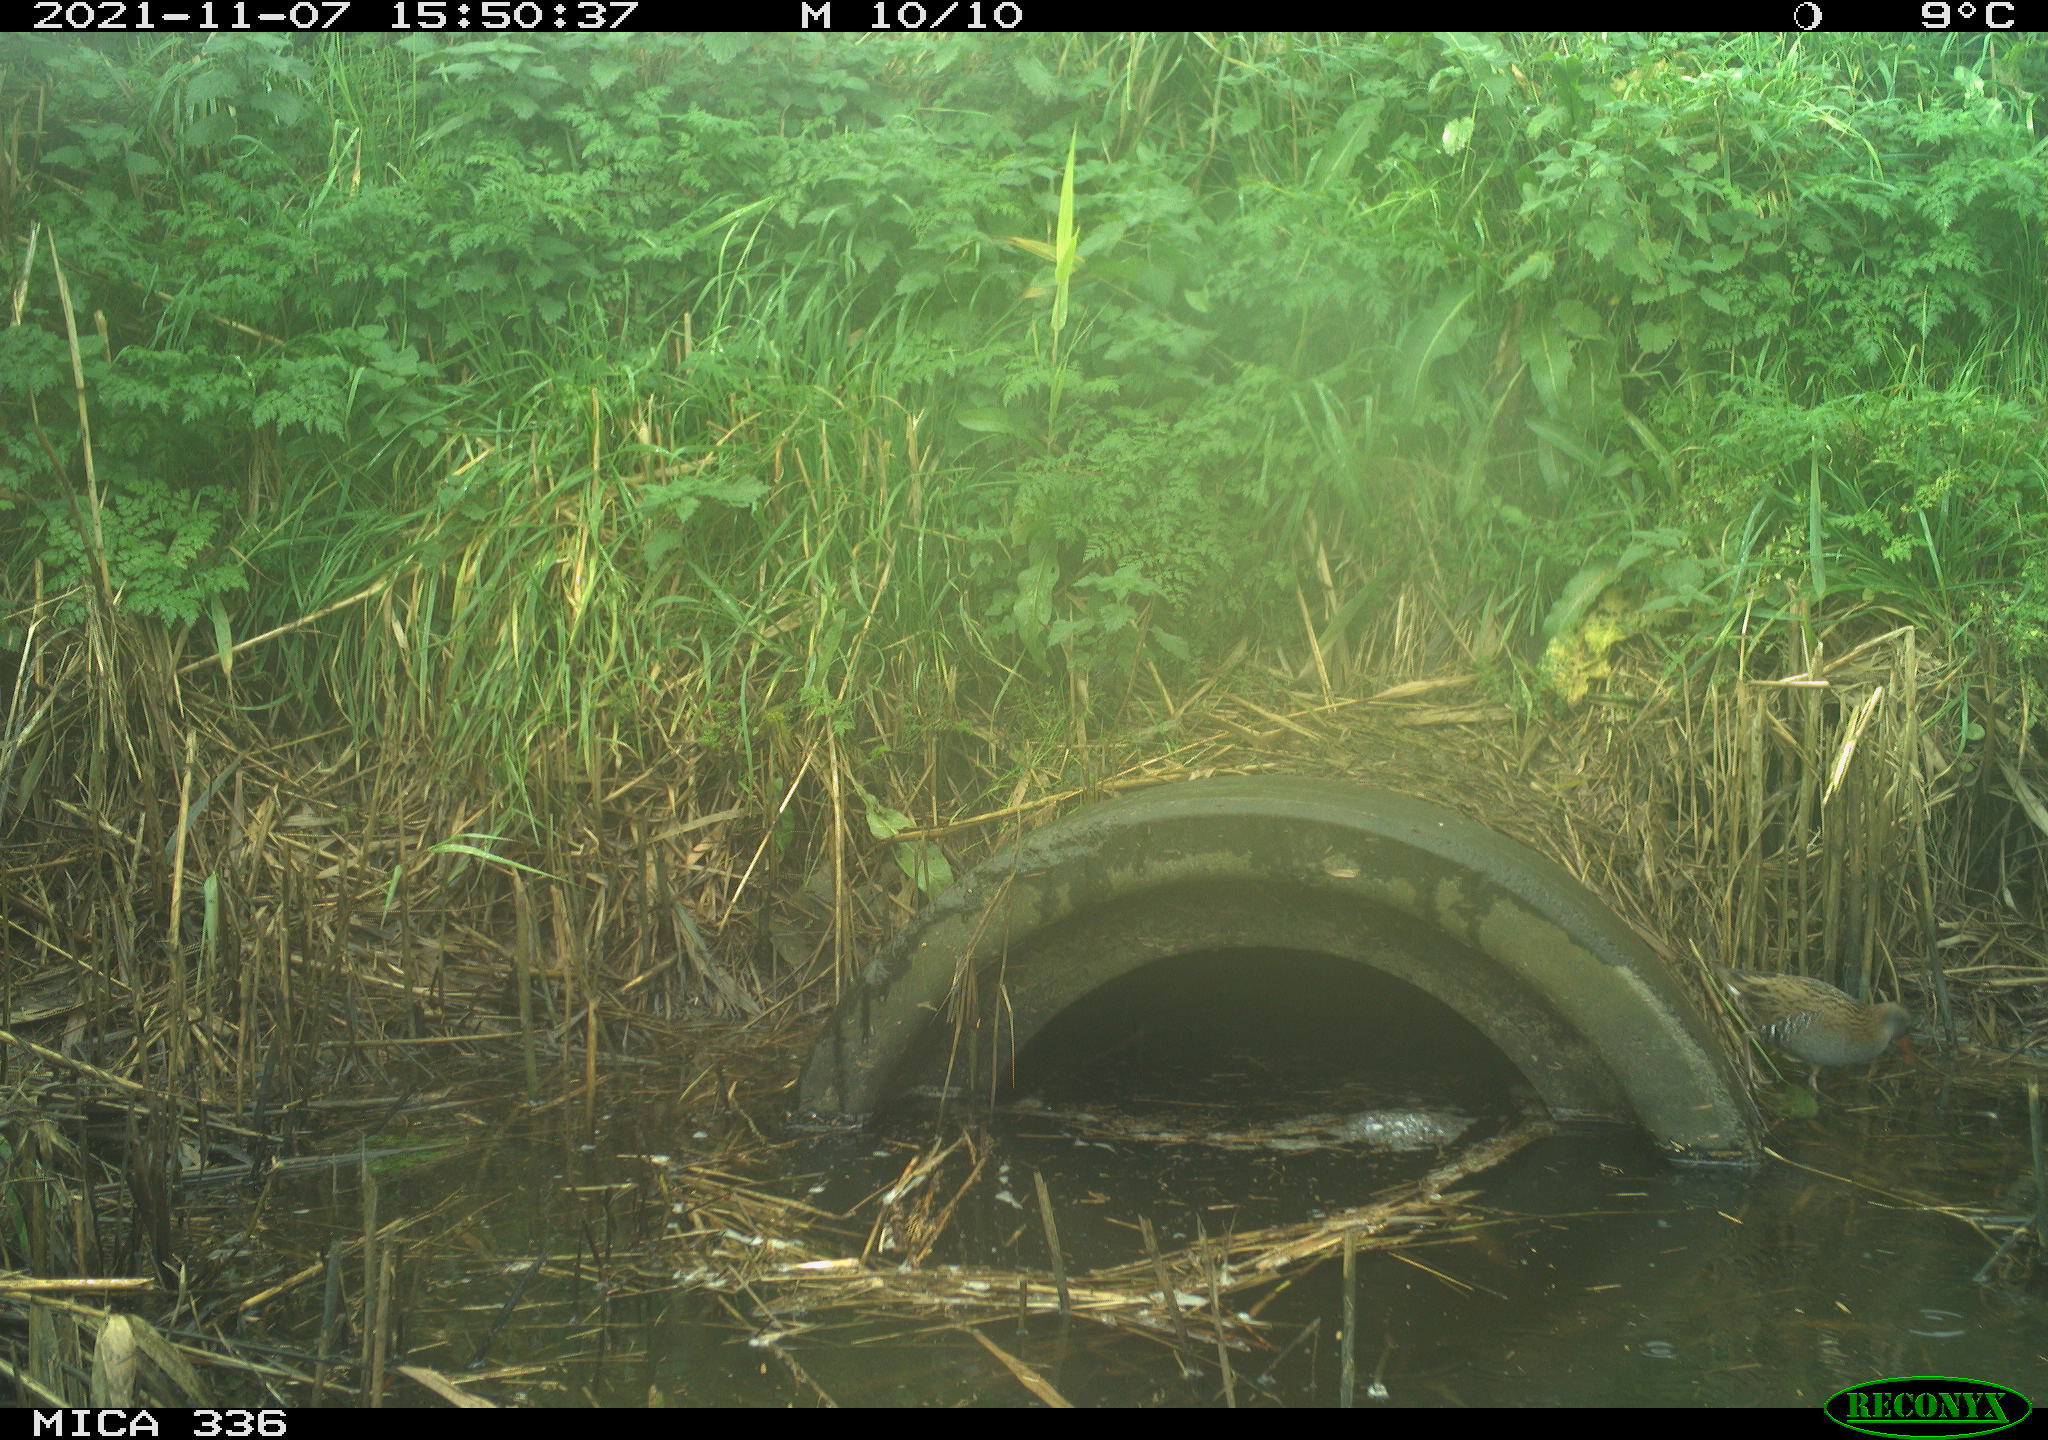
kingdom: Animalia
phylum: Chordata
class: Aves
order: Gruiformes
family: Rallidae
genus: Gallinula
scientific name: Gallinula chloropus
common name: Common moorhen
